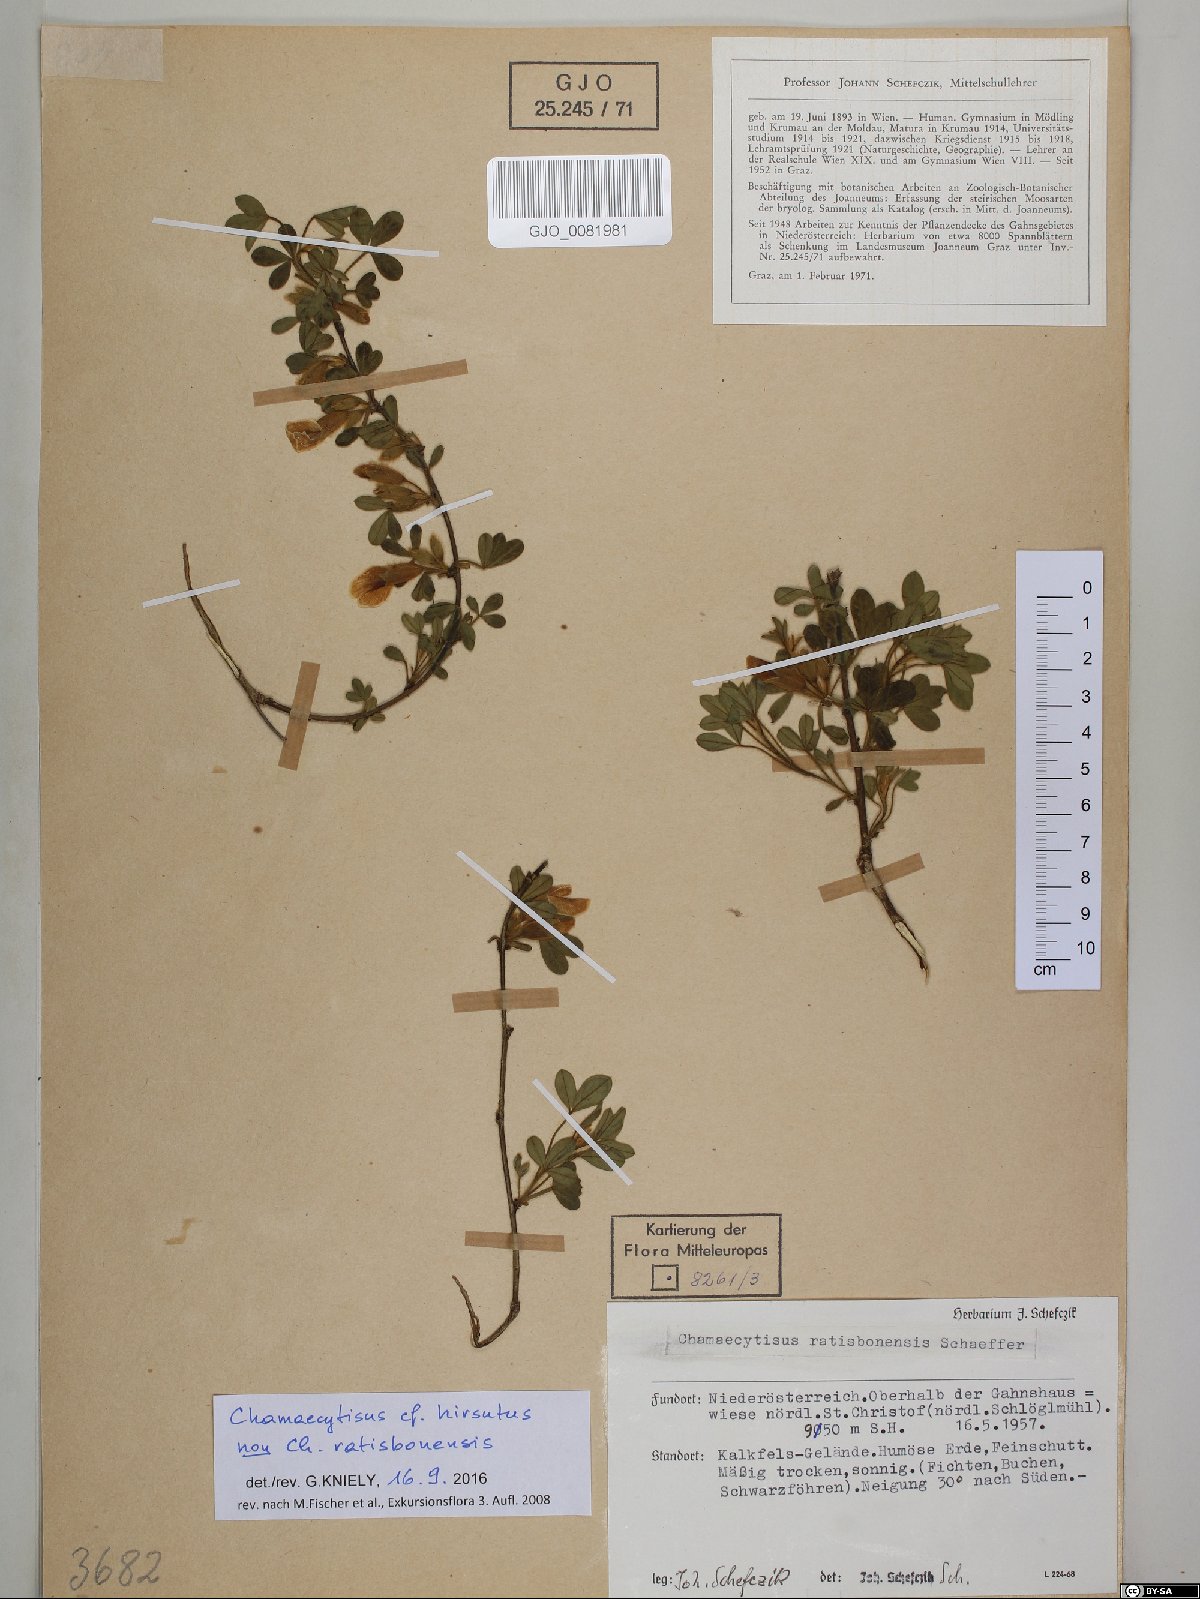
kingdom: Plantae
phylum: Tracheophyta
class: Magnoliopsida
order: Fabales
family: Fabaceae
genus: Chamaecytisus
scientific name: Chamaecytisus hirsutus
